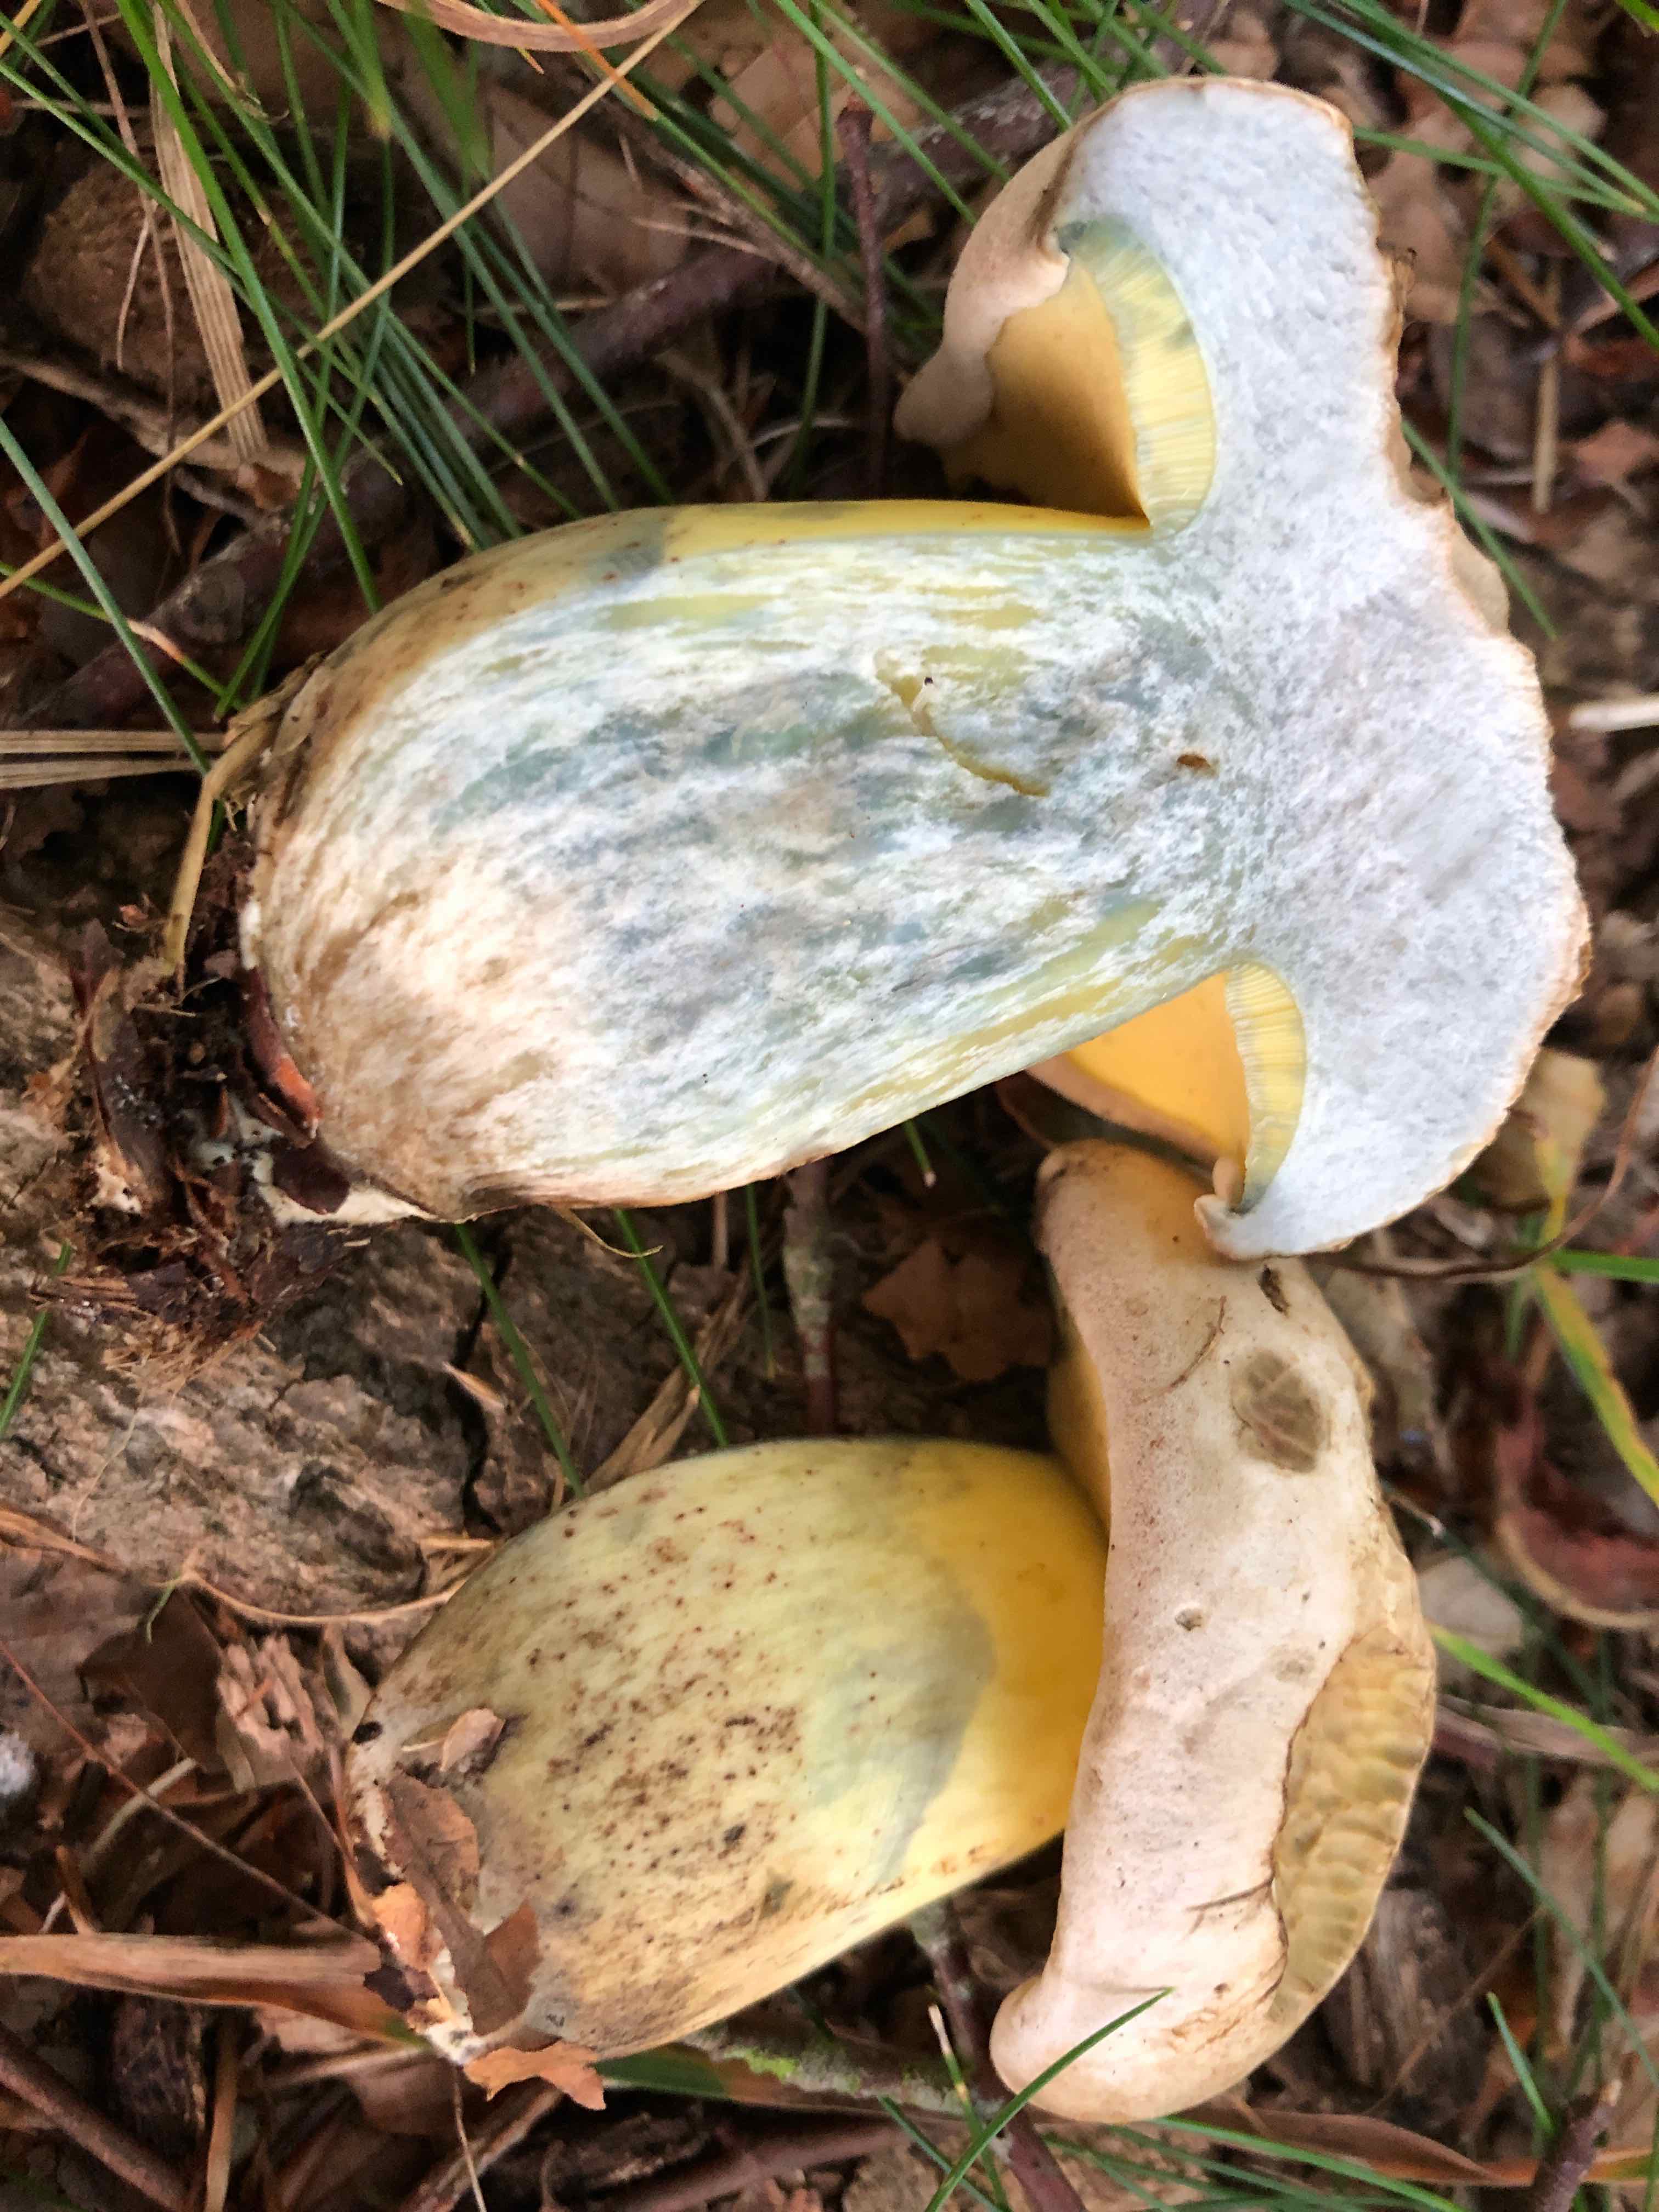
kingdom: Fungi
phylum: Basidiomycota
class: Agaricomycetes
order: Boletales
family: Boletaceae
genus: Caloboletus
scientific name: Caloboletus radicans
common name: rod-rørhat
